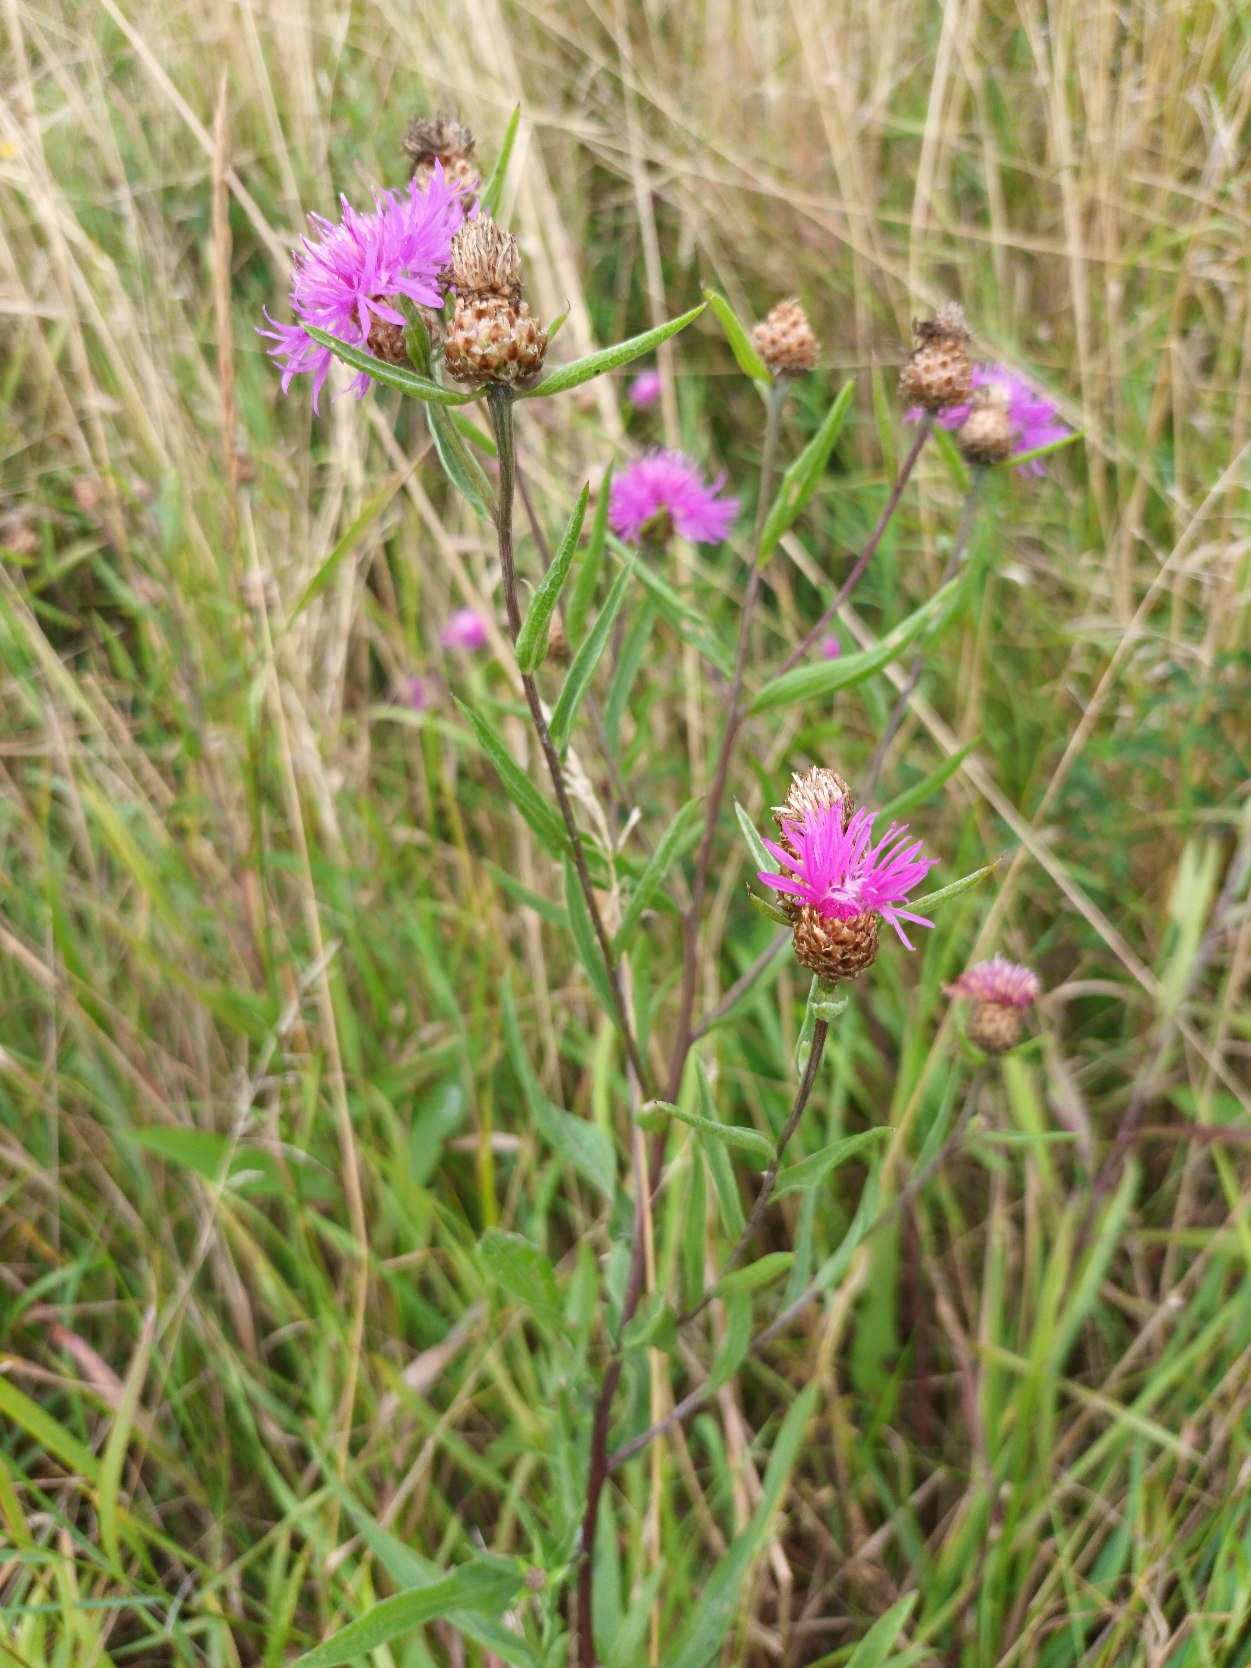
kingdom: Plantae
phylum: Tracheophyta
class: Magnoliopsida
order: Asterales
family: Asteraceae
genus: Centaurea
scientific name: Centaurea jacea
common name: Almindelig knopurt
